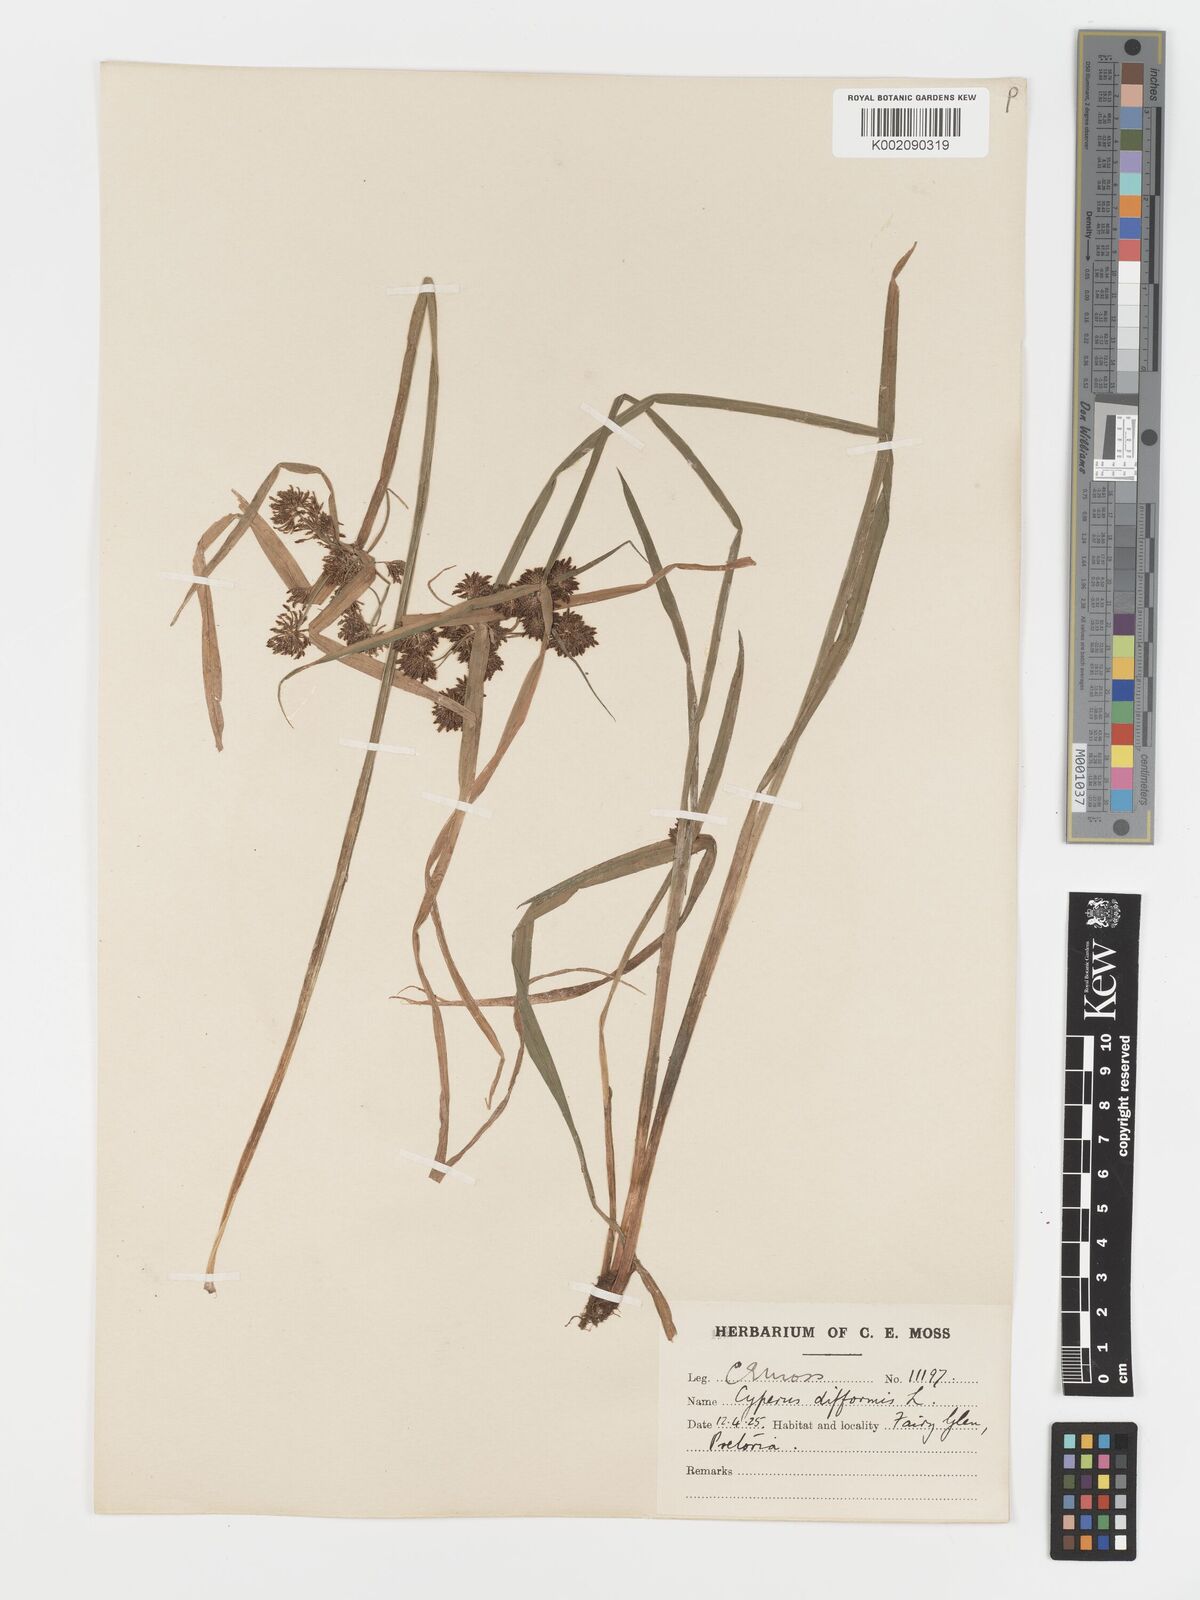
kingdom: Plantae
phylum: Tracheophyta
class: Liliopsida
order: Poales
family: Cyperaceae
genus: Cyperus
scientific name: Cyperus difformis
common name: Variable flatsedge
